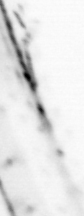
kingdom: Animalia
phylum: Chaetognatha
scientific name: Chaetognatha
